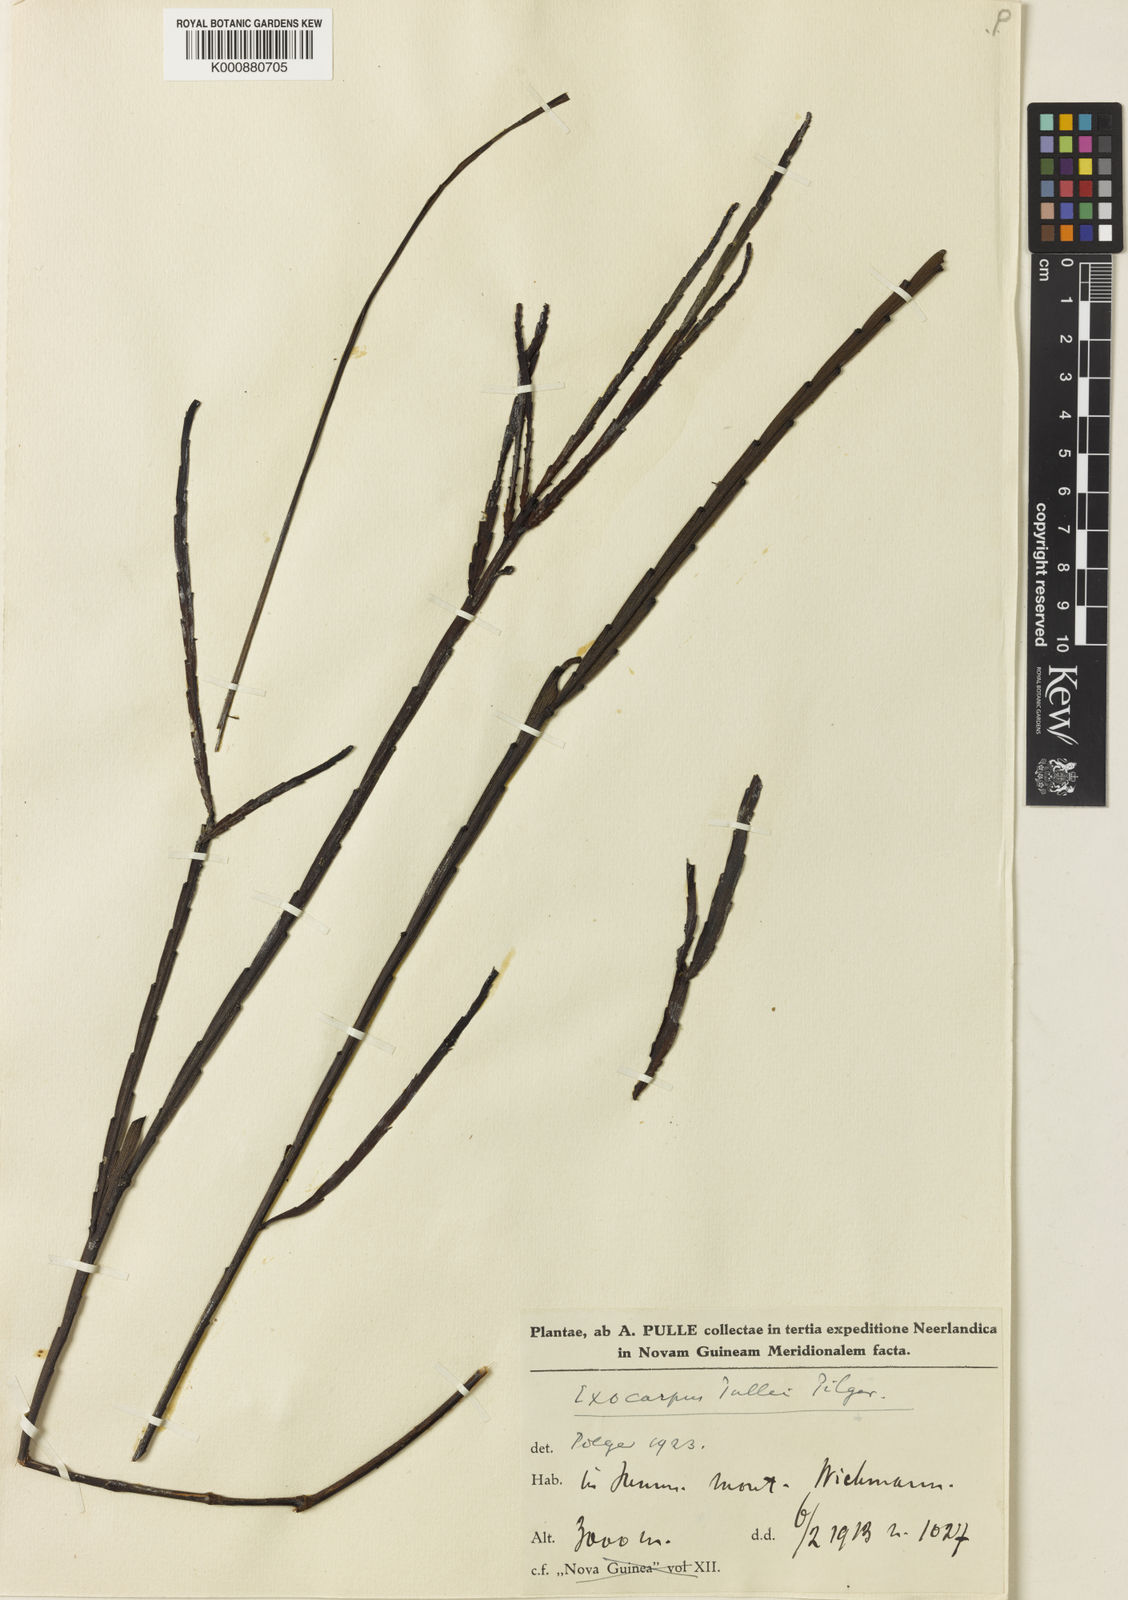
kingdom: Plantae
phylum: Tracheophyta
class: Magnoliopsida
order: Santalales
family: Santalaceae
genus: Exocarpos
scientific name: Exocarpos pullei
